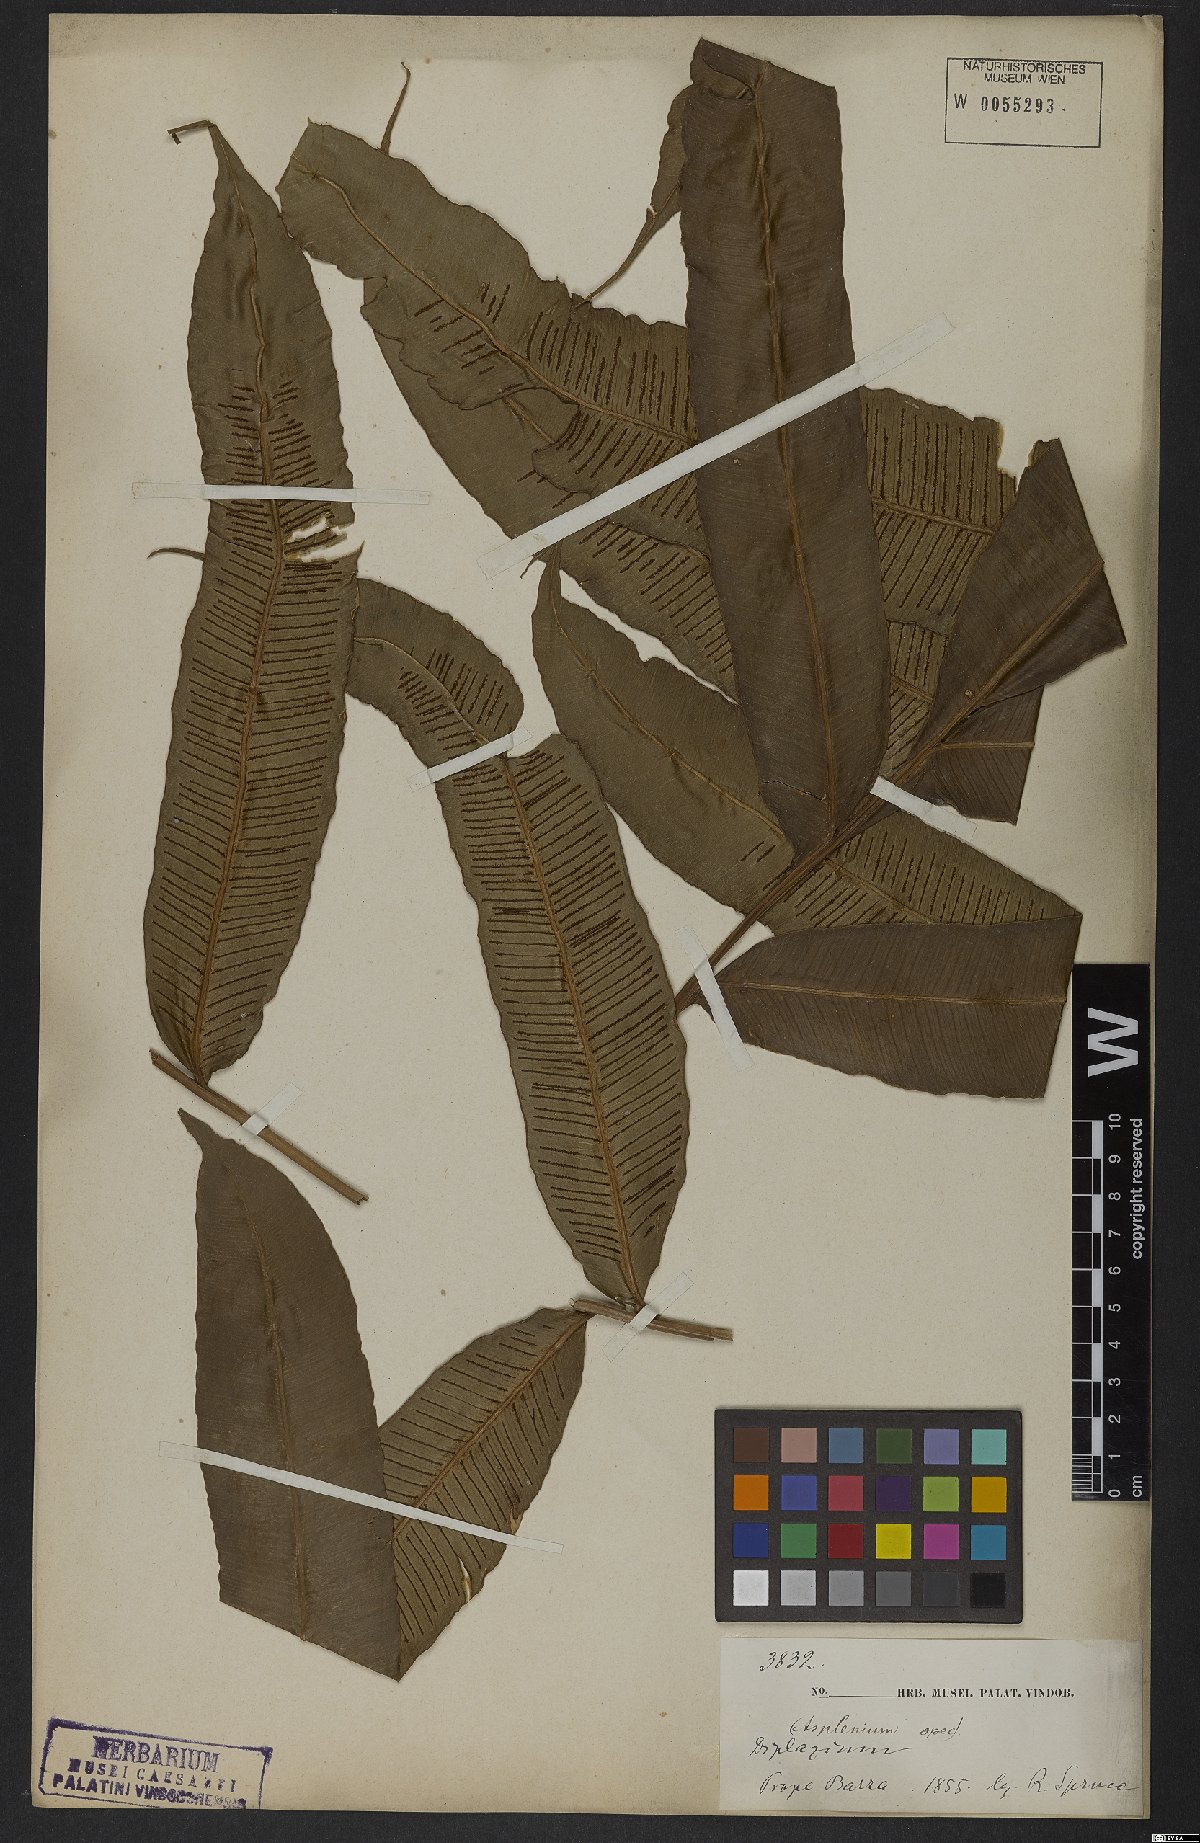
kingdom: Plantae
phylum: Tracheophyta
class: Polypodiopsida
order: Polypodiales
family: Athyriaceae
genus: Diplazium
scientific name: Diplazium
